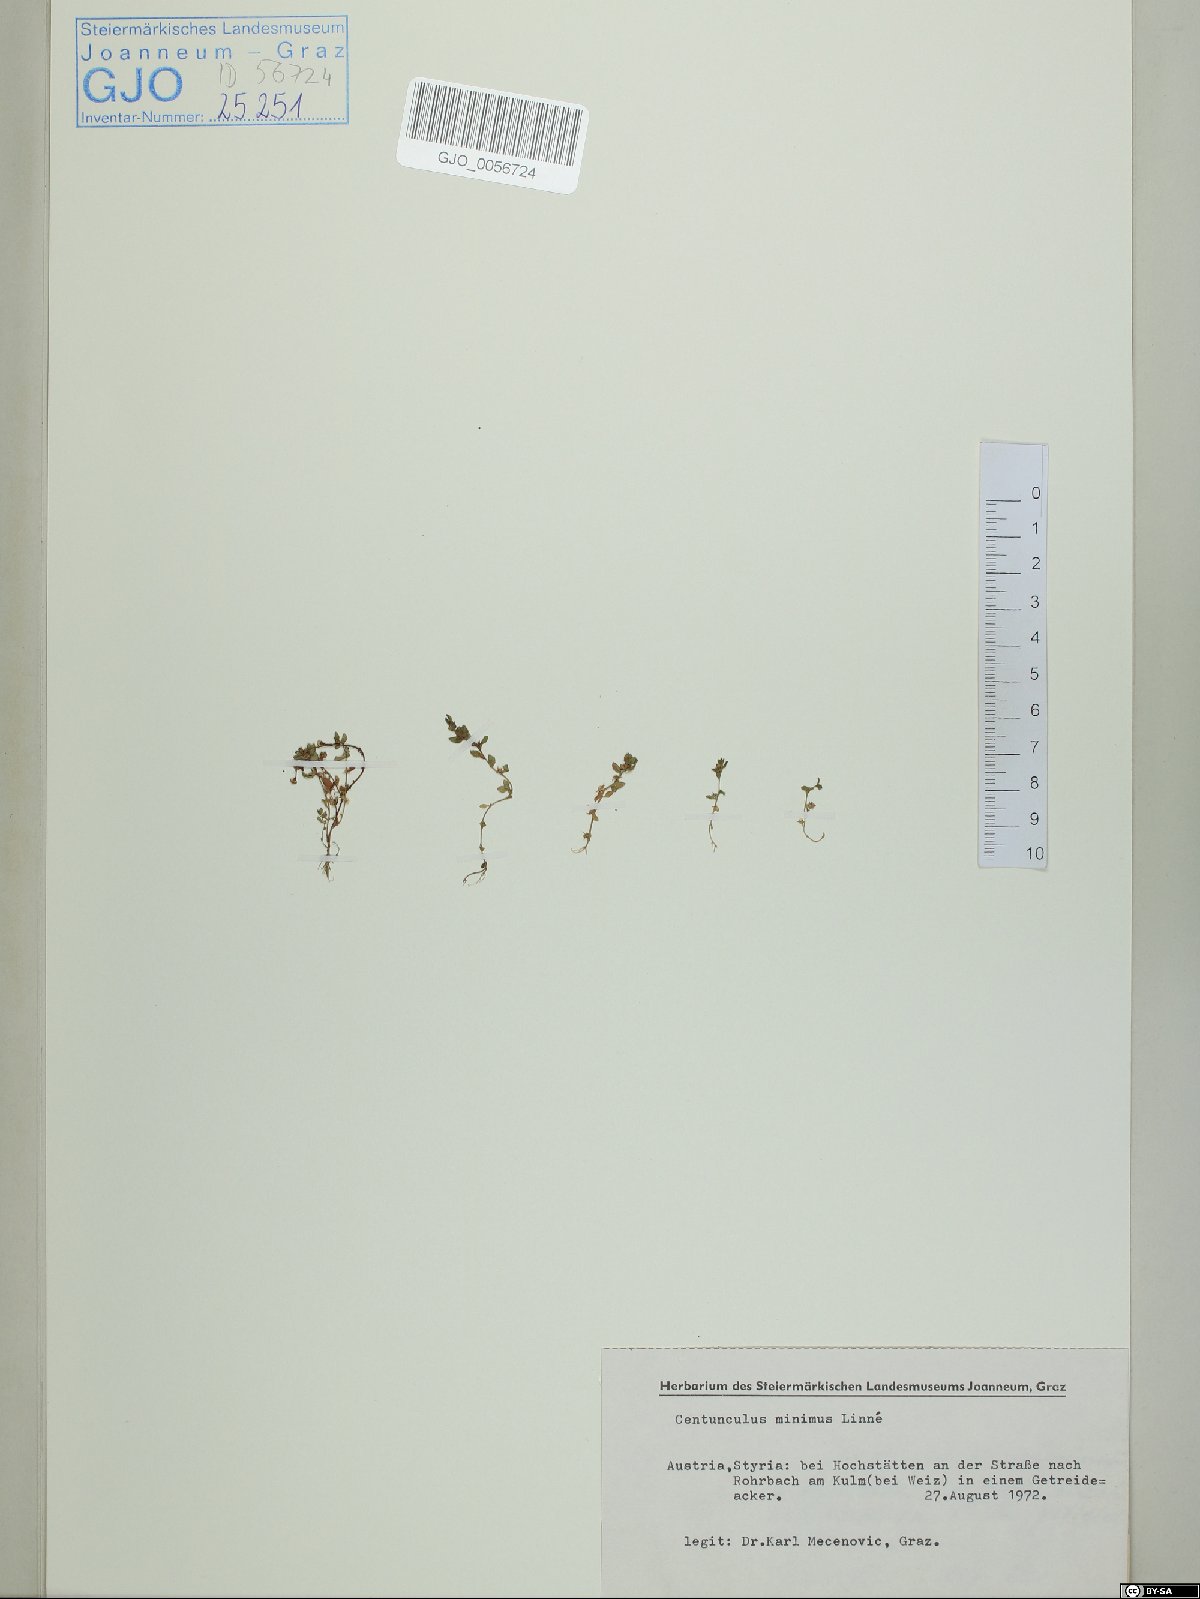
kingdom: Plantae
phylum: Tracheophyta
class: Magnoliopsida
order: Ericales
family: Primulaceae
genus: Lysimachia
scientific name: Lysimachia minima
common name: Chaffweed
